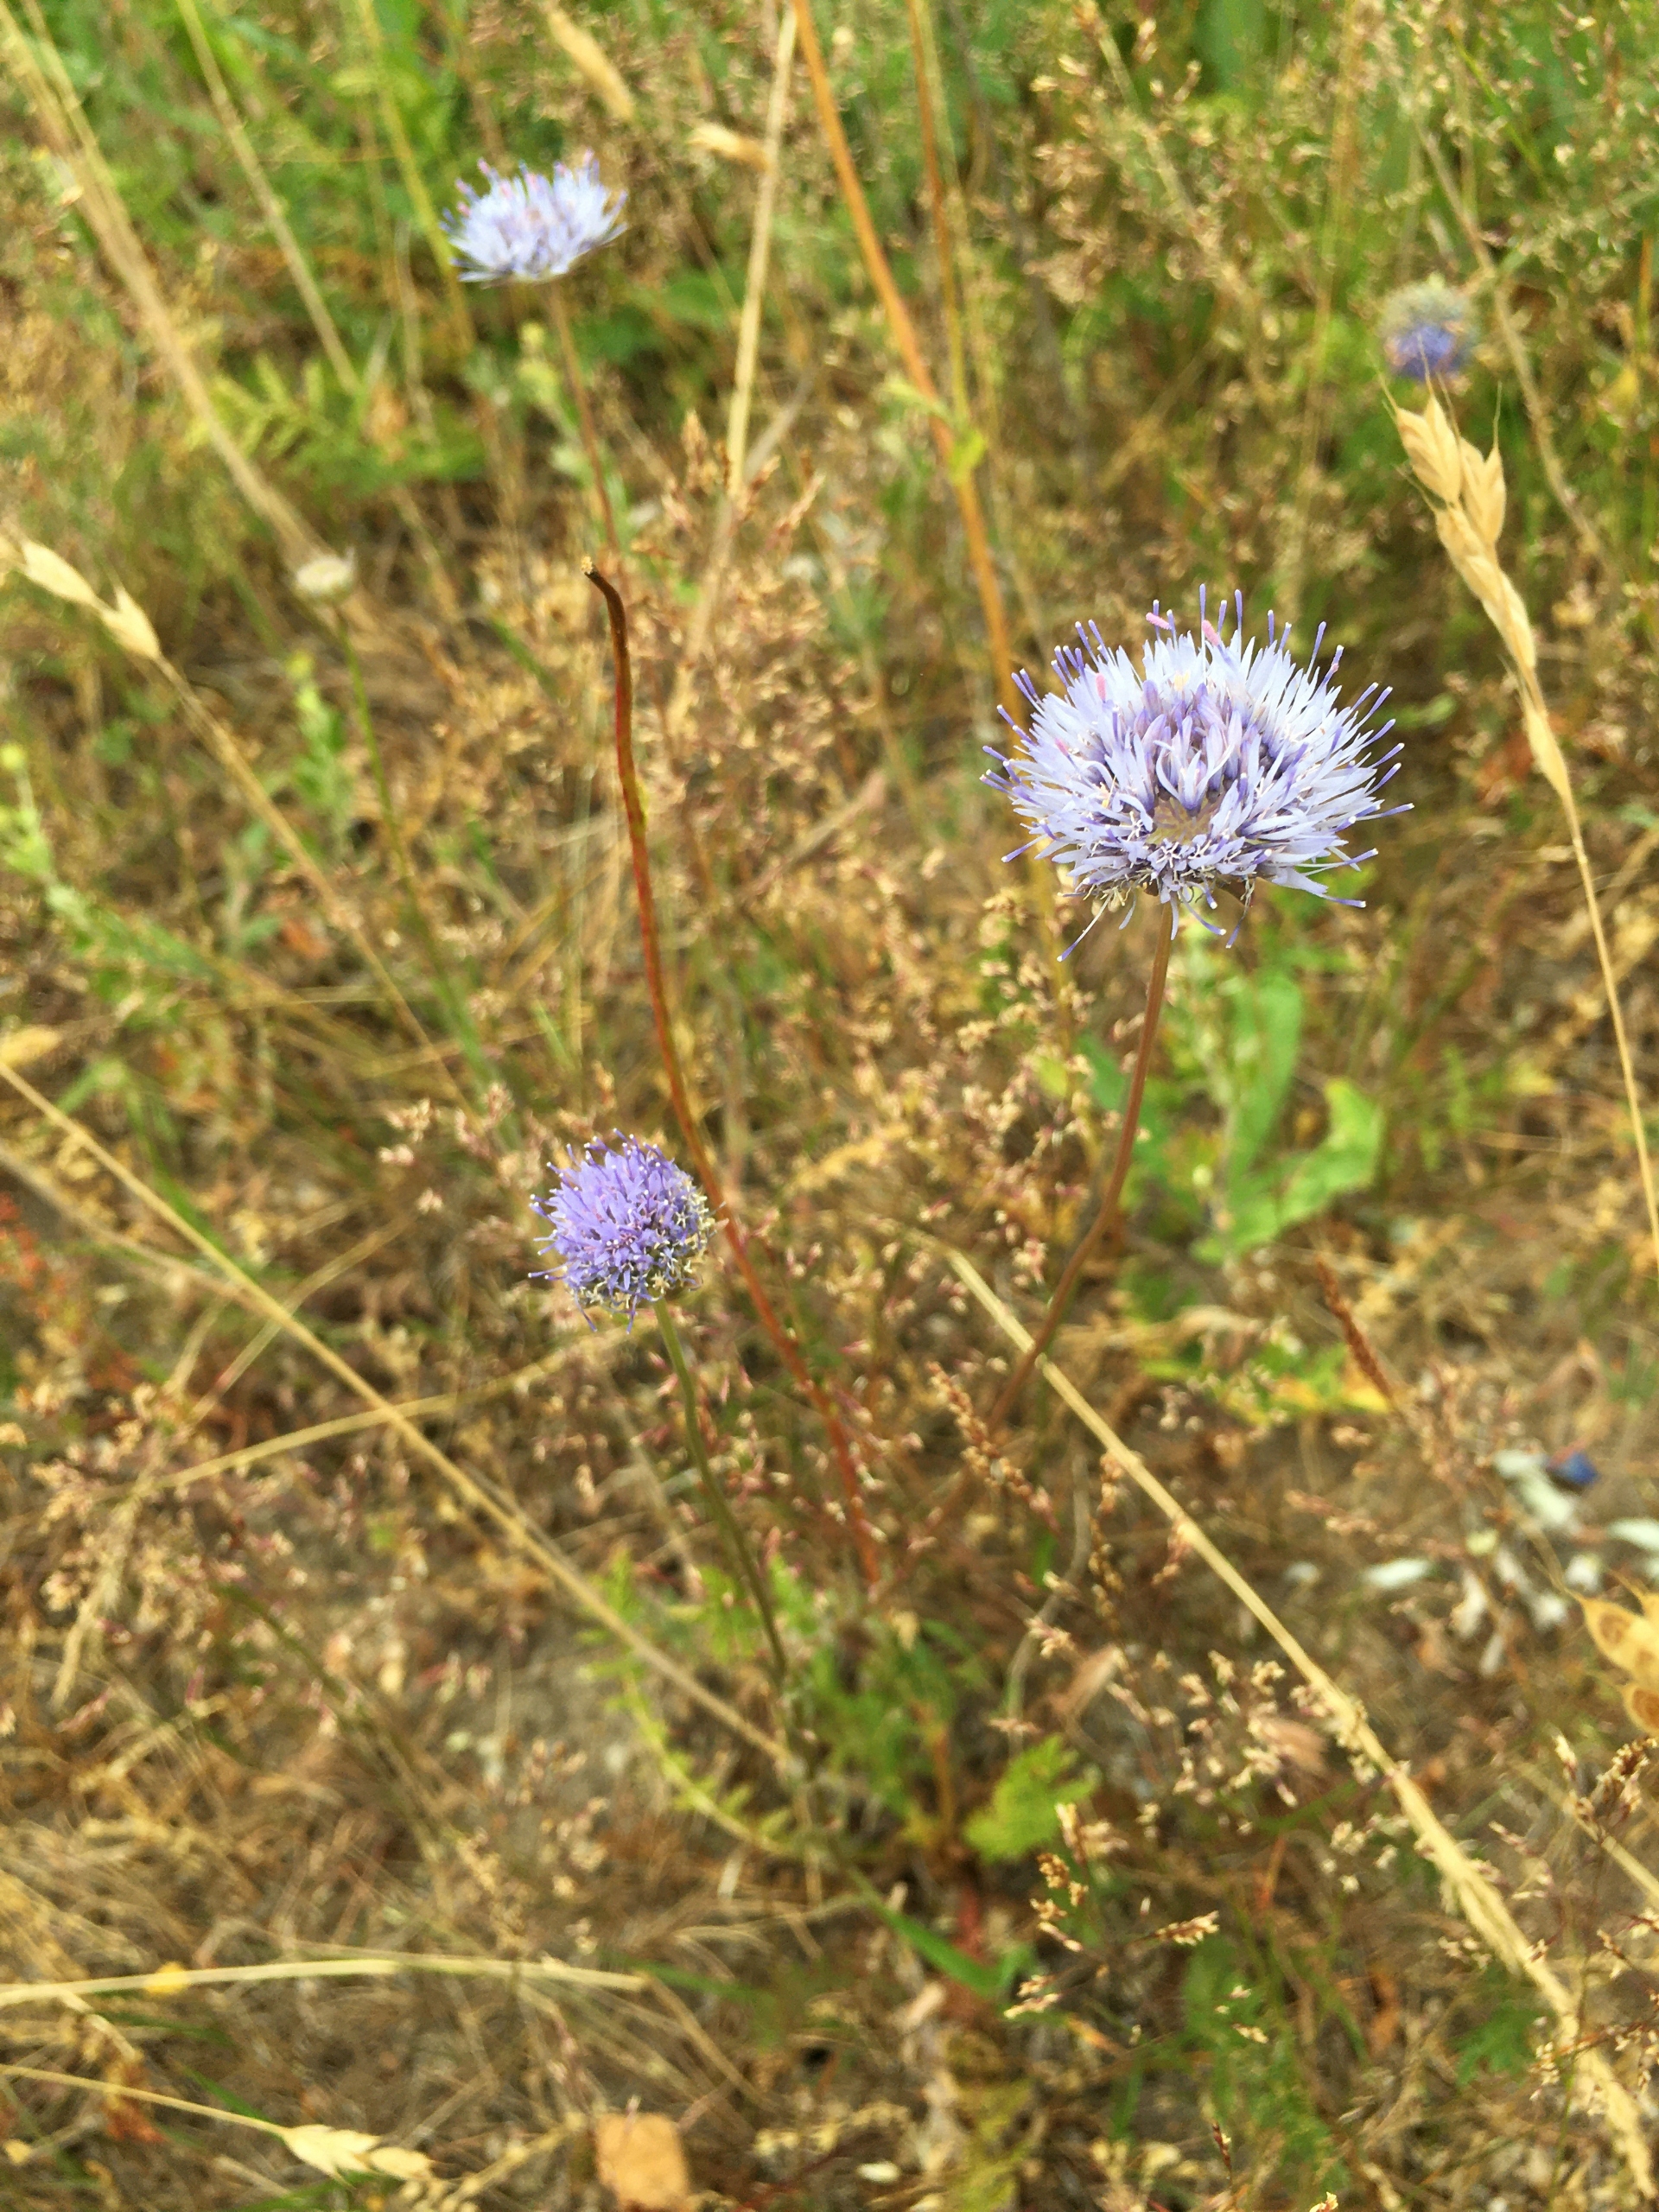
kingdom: Plantae
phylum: Tracheophyta
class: Magnoliopsida
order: Asterales
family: Campanulaceae
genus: Jasione
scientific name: Jasione montana
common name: Blåmunke
